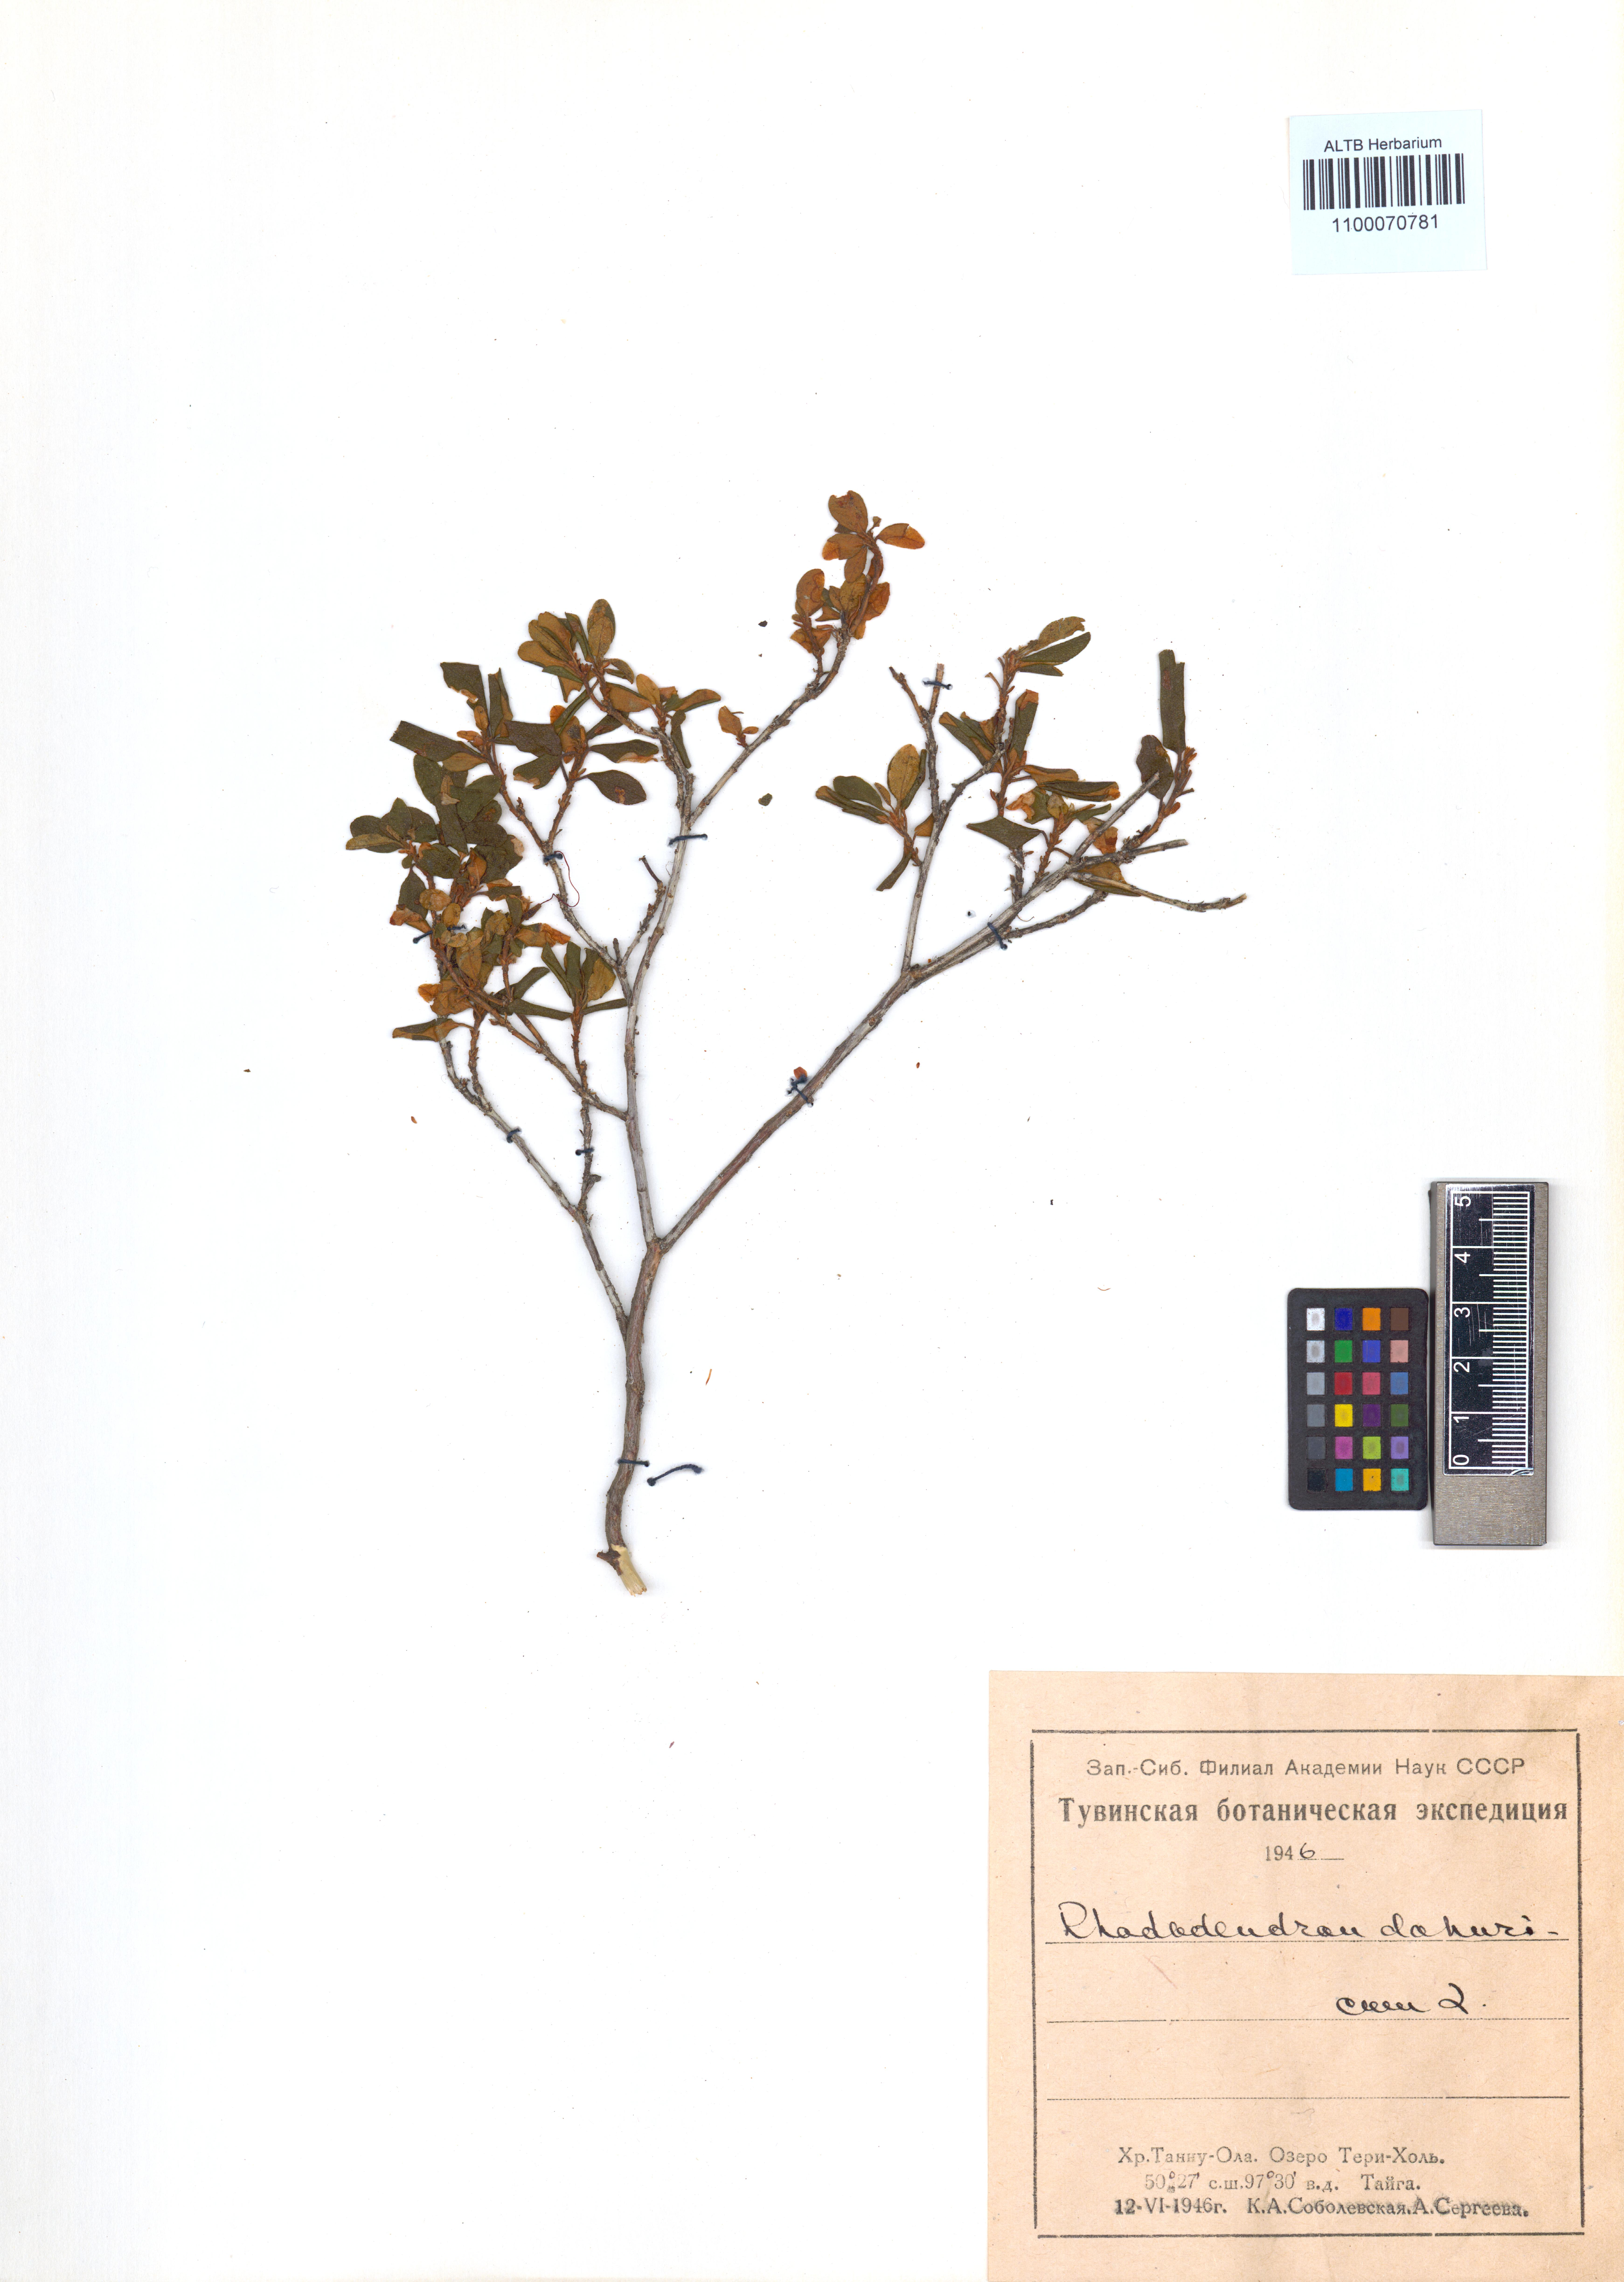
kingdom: Plantae
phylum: Tracheophyta
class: Magnoliopsida
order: Ericales
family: Ericaceae
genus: Rhododendron
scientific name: Rhododendron dauricum
